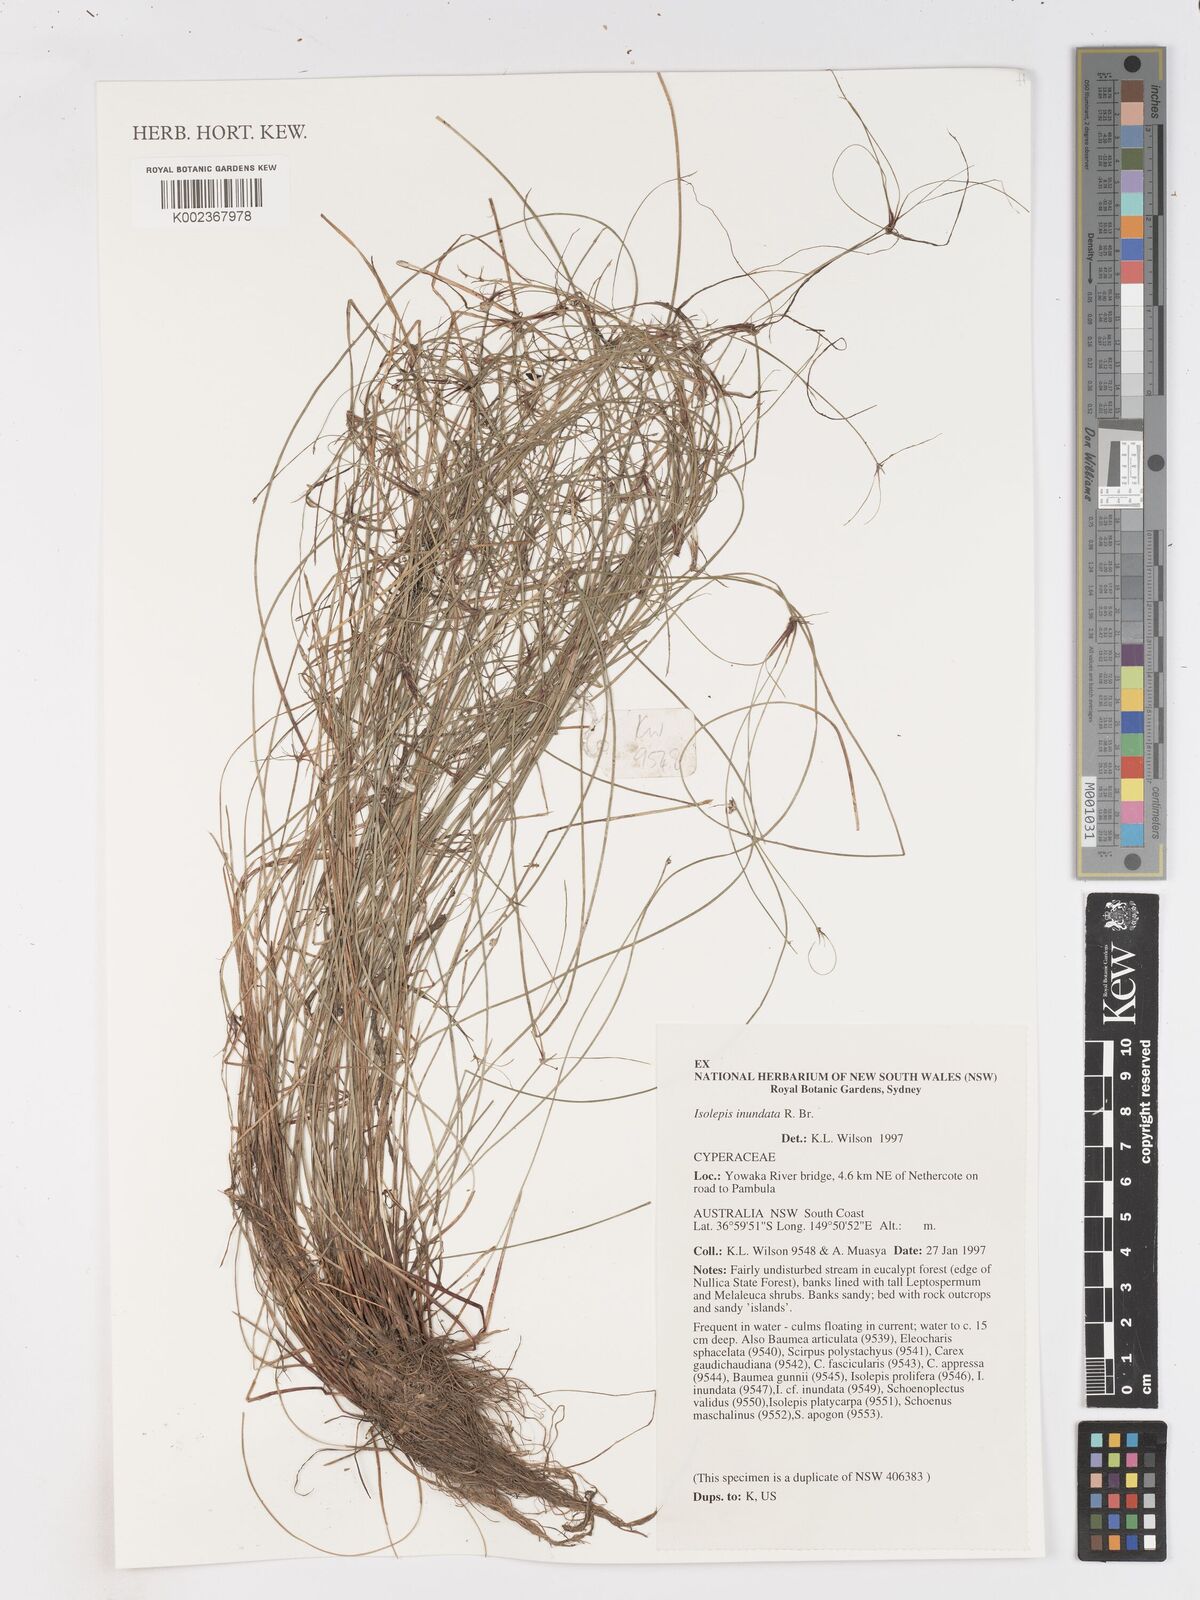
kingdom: Plantae
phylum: Tracheophyta
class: Liliopsida
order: Poales
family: Cyperaceae
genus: Isolepis
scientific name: Isolepis inundata
